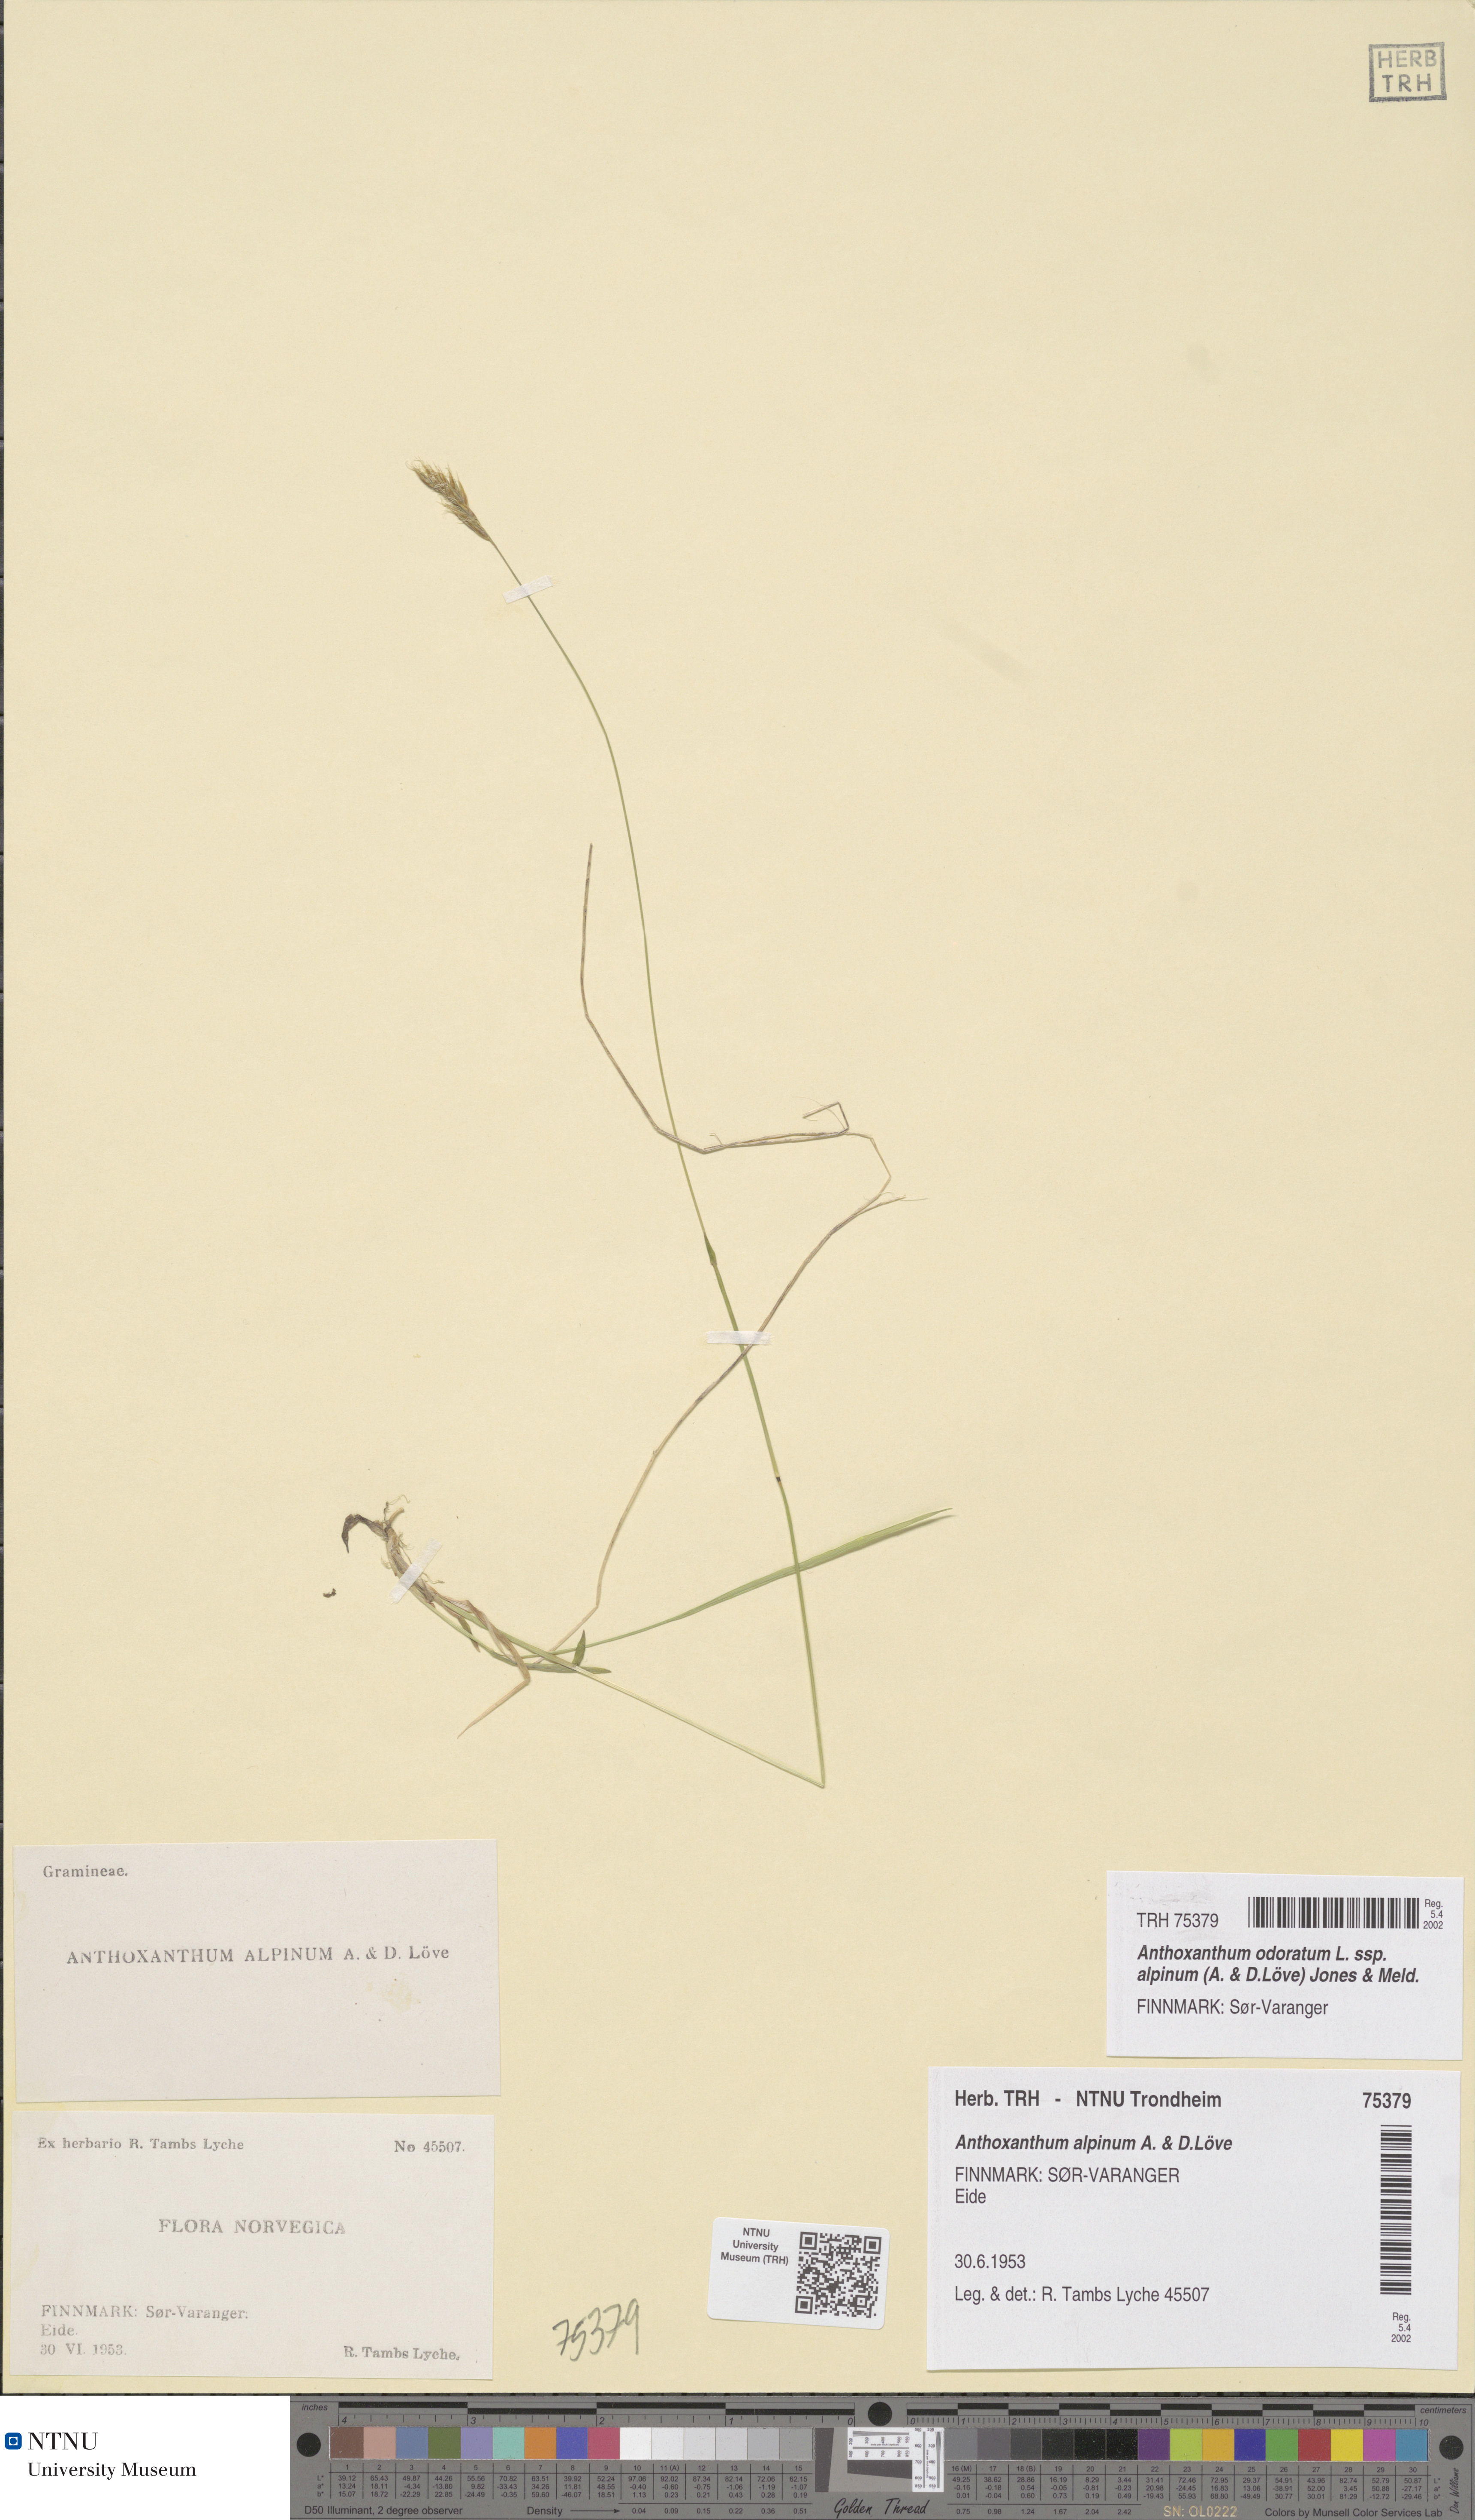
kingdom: Plantae
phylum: Tracheophyta
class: Liliopsida
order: Poales
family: Poaceae
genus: Anthoxanthum
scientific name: Anthoxanthum nipponicum
